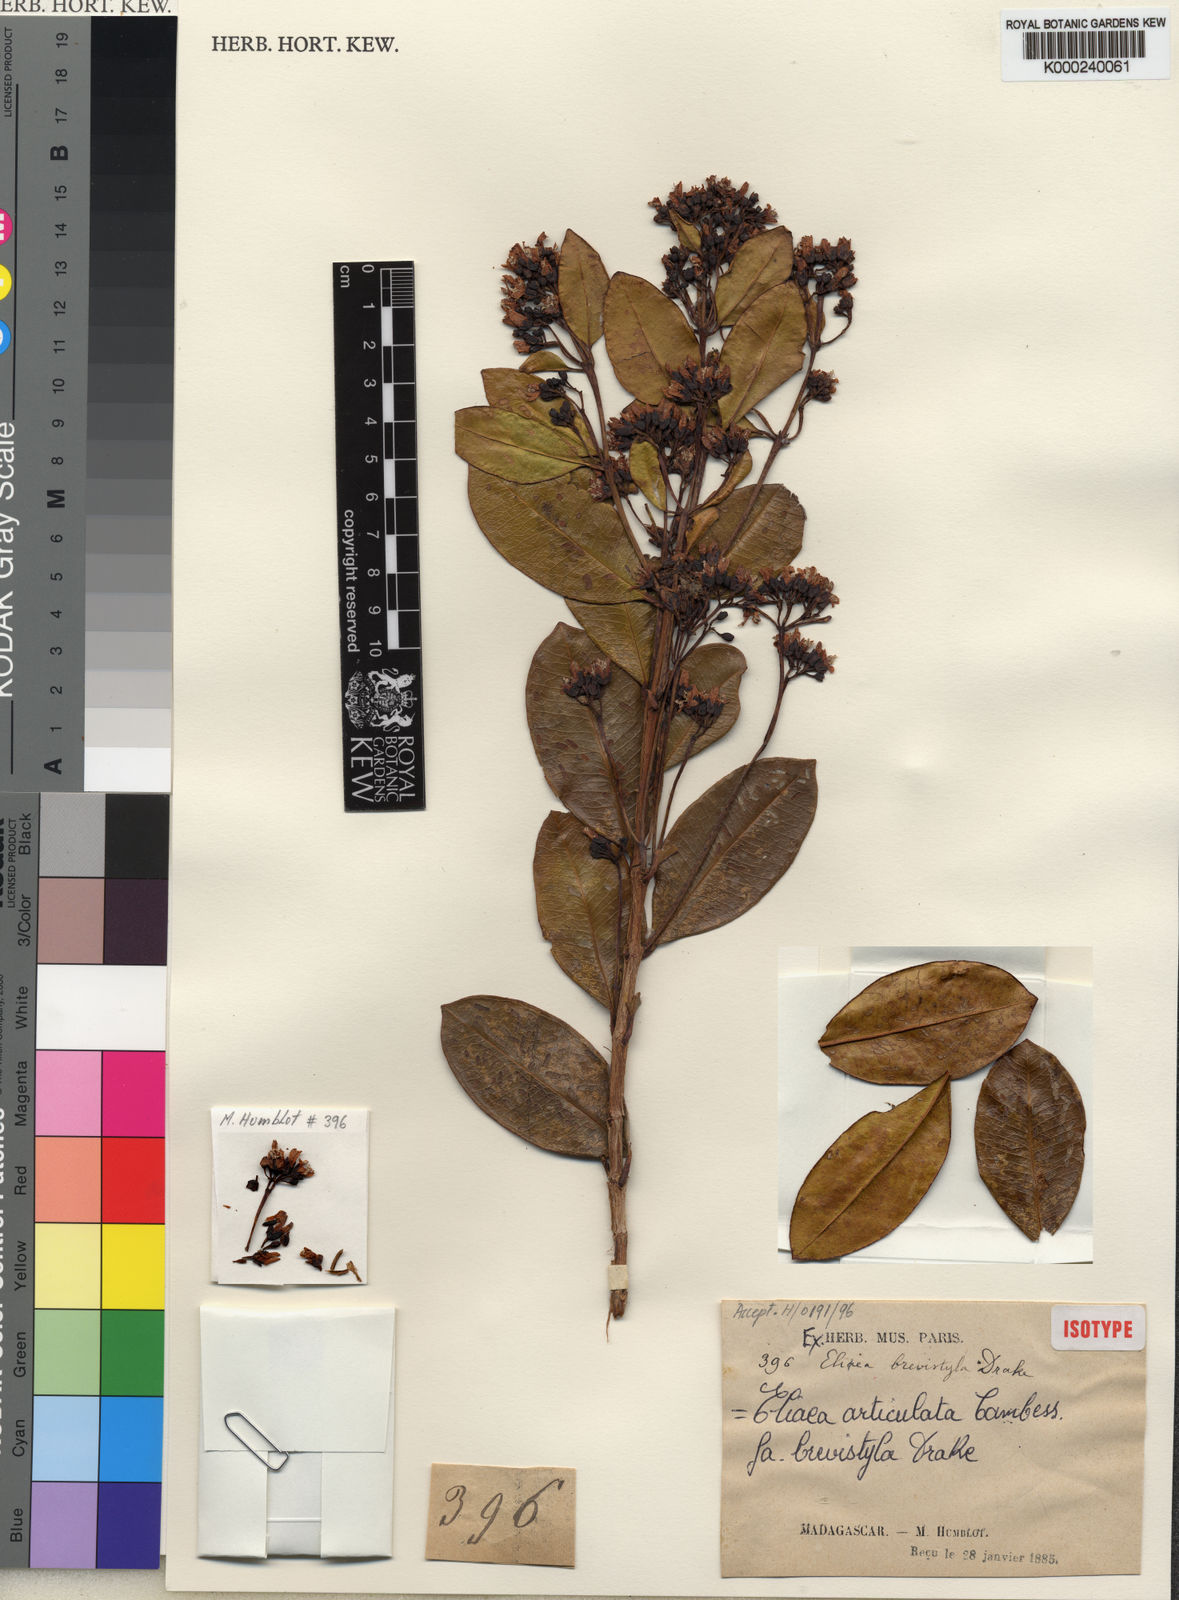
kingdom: Plantae
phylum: Tracheophyta
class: Magnoliopsida
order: Malpighiales
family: Hypericaceae
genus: Eliea
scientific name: Eliea articulata
